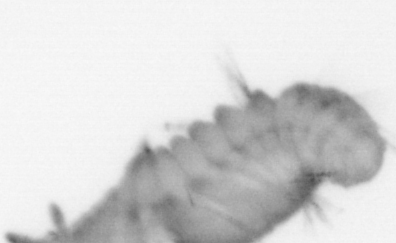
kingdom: Animalia
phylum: Annelida
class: Polychaeta
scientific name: Polychaeta
